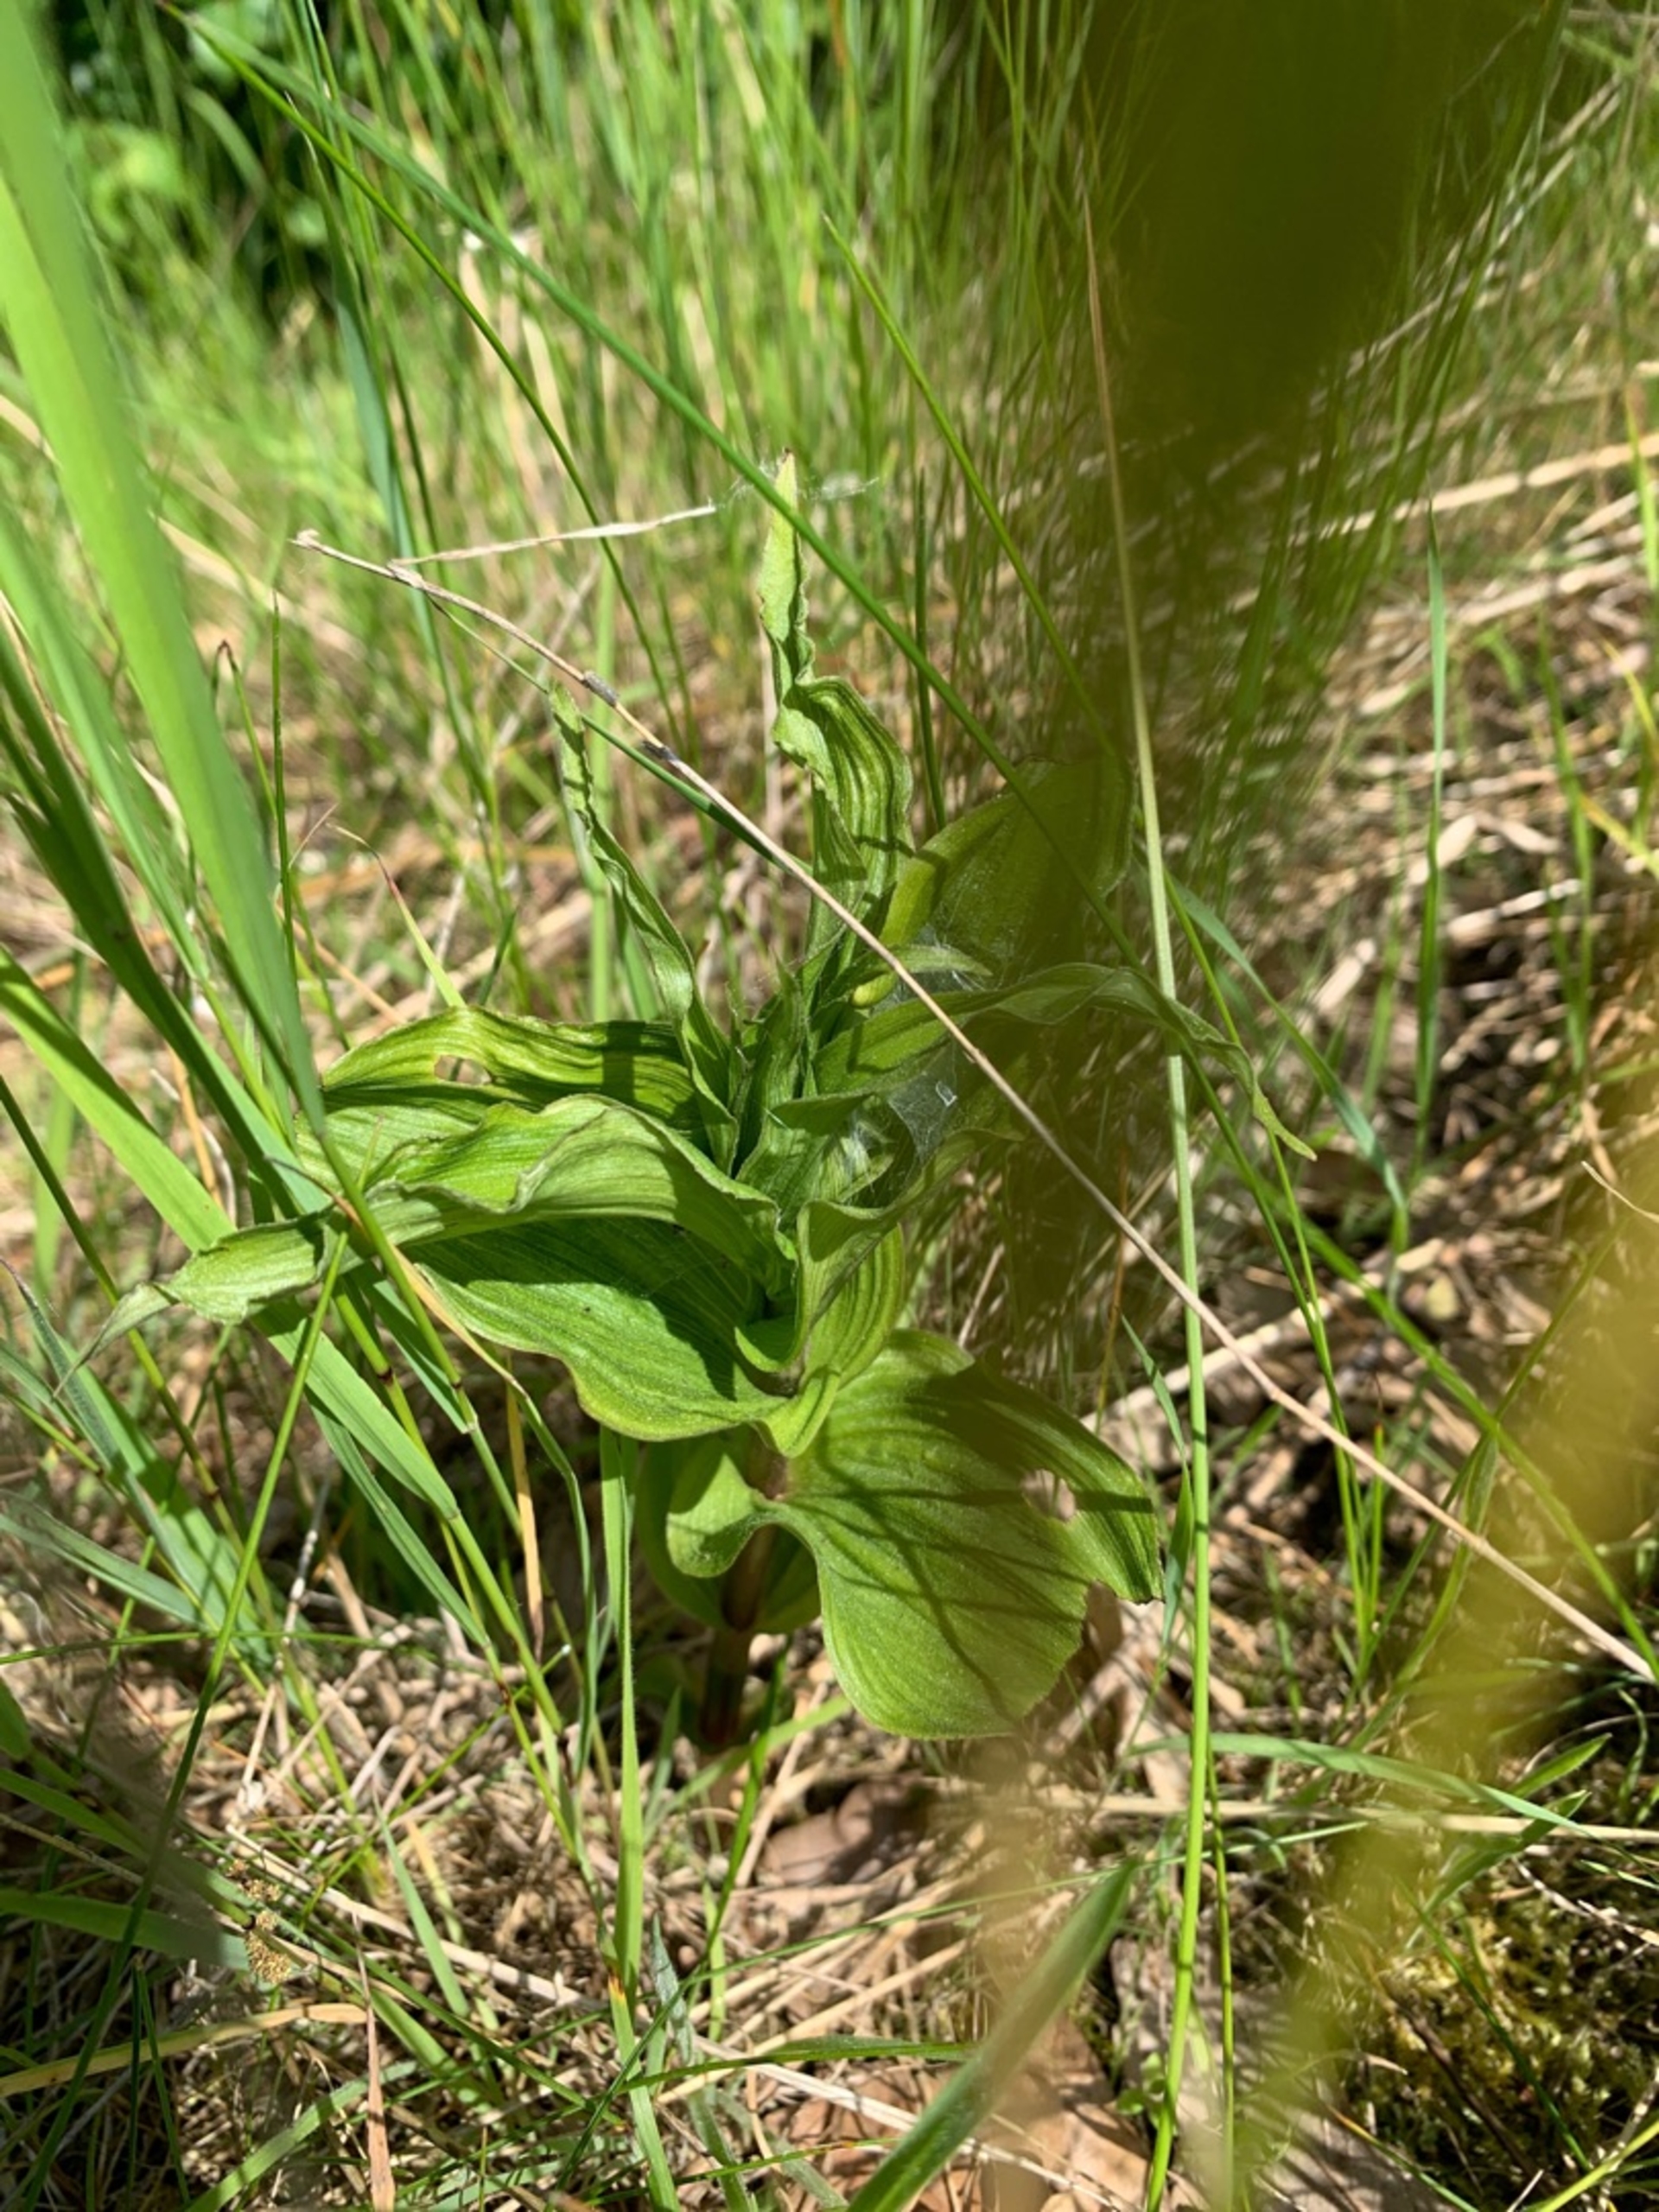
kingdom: Plantae
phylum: Tracheophyta
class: Liliopsida
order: Asparagales
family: Orchidaceae
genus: Epipactis
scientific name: Epipactis helleborine
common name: Skov-hullæbe
